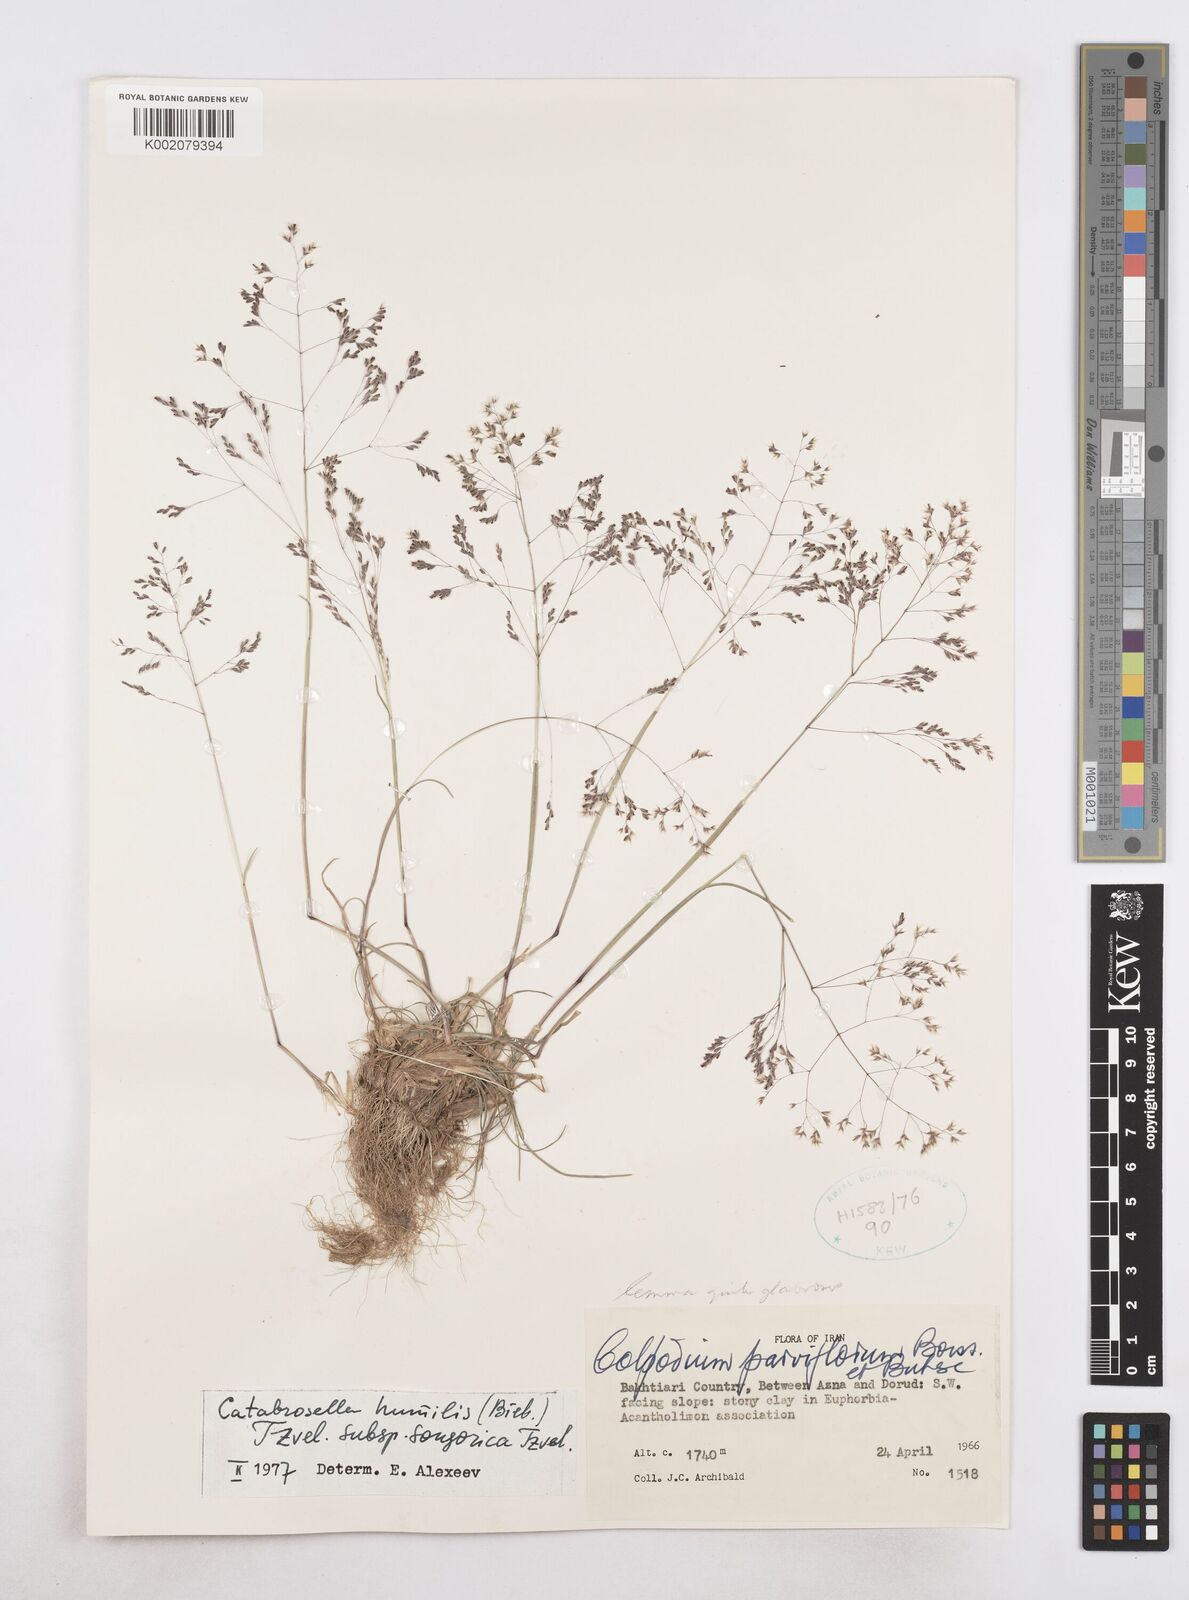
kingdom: Plantae
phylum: Tracheophyta
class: Liliopsida
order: Poales
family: Poaceae
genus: Catabrosella
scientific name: Catabrosella humilis
